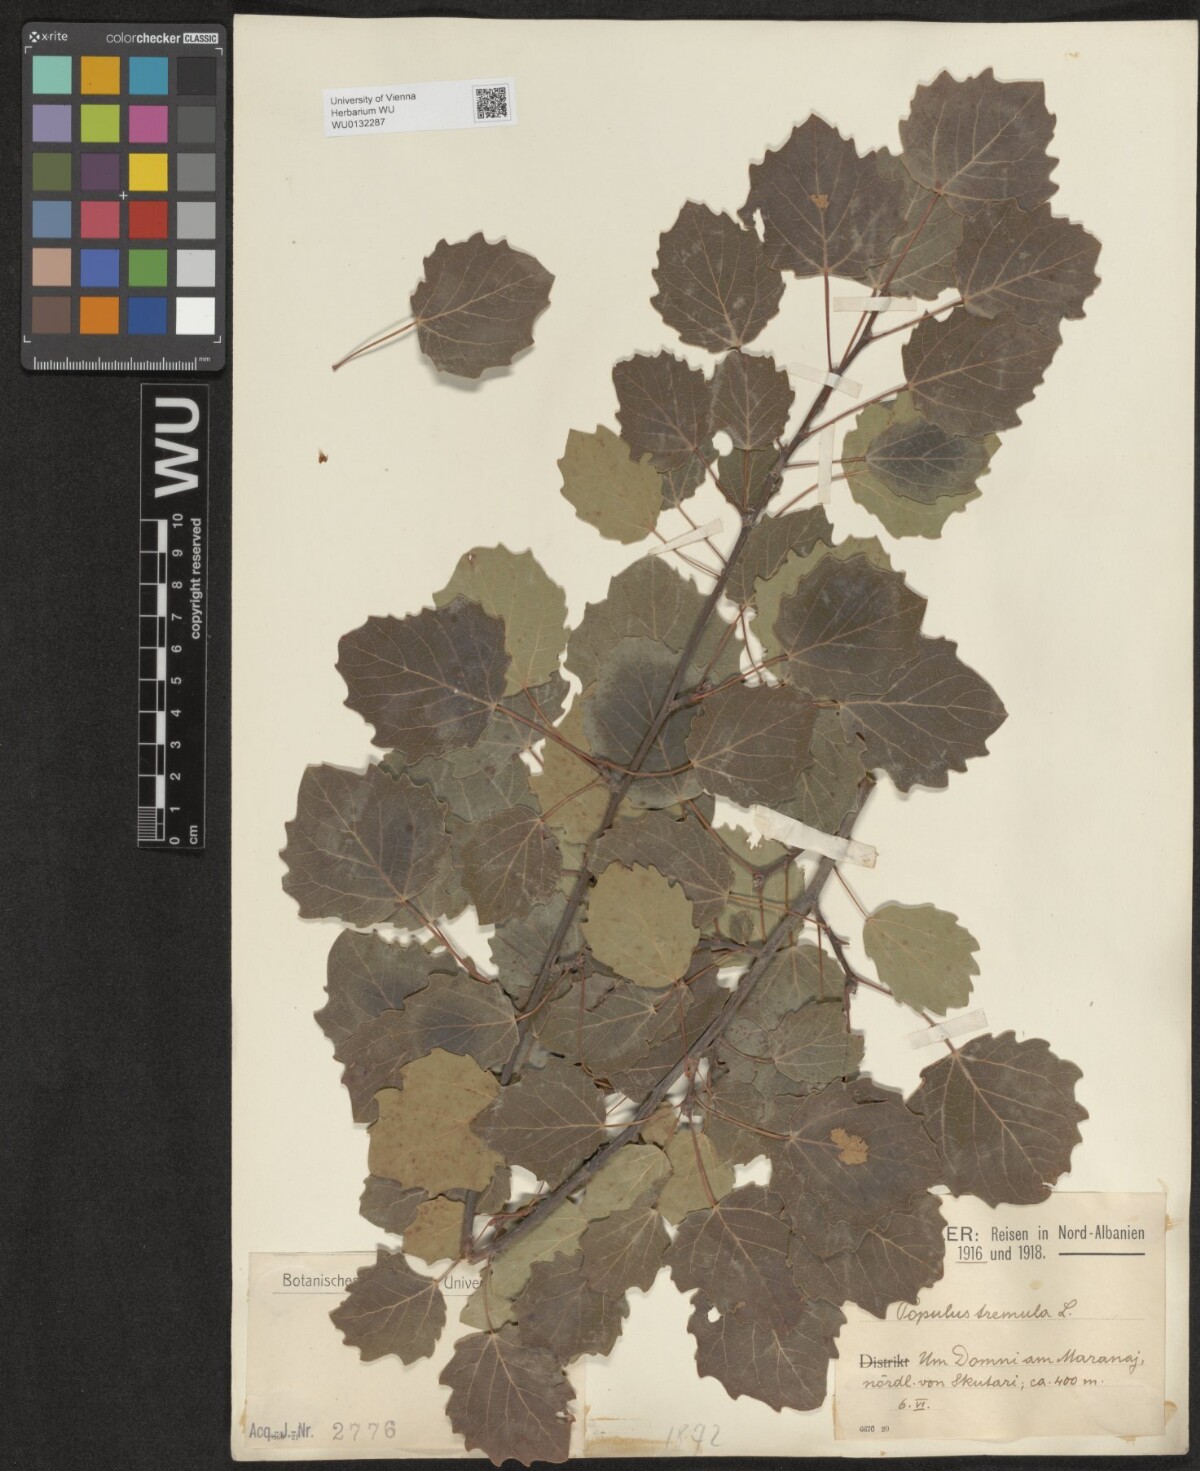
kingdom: Plantae
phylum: Tracheophyta
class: Magnoliopsida
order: Malpighiales
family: Salicaceae
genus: Populus
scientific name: Populus tremula
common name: European aspen
